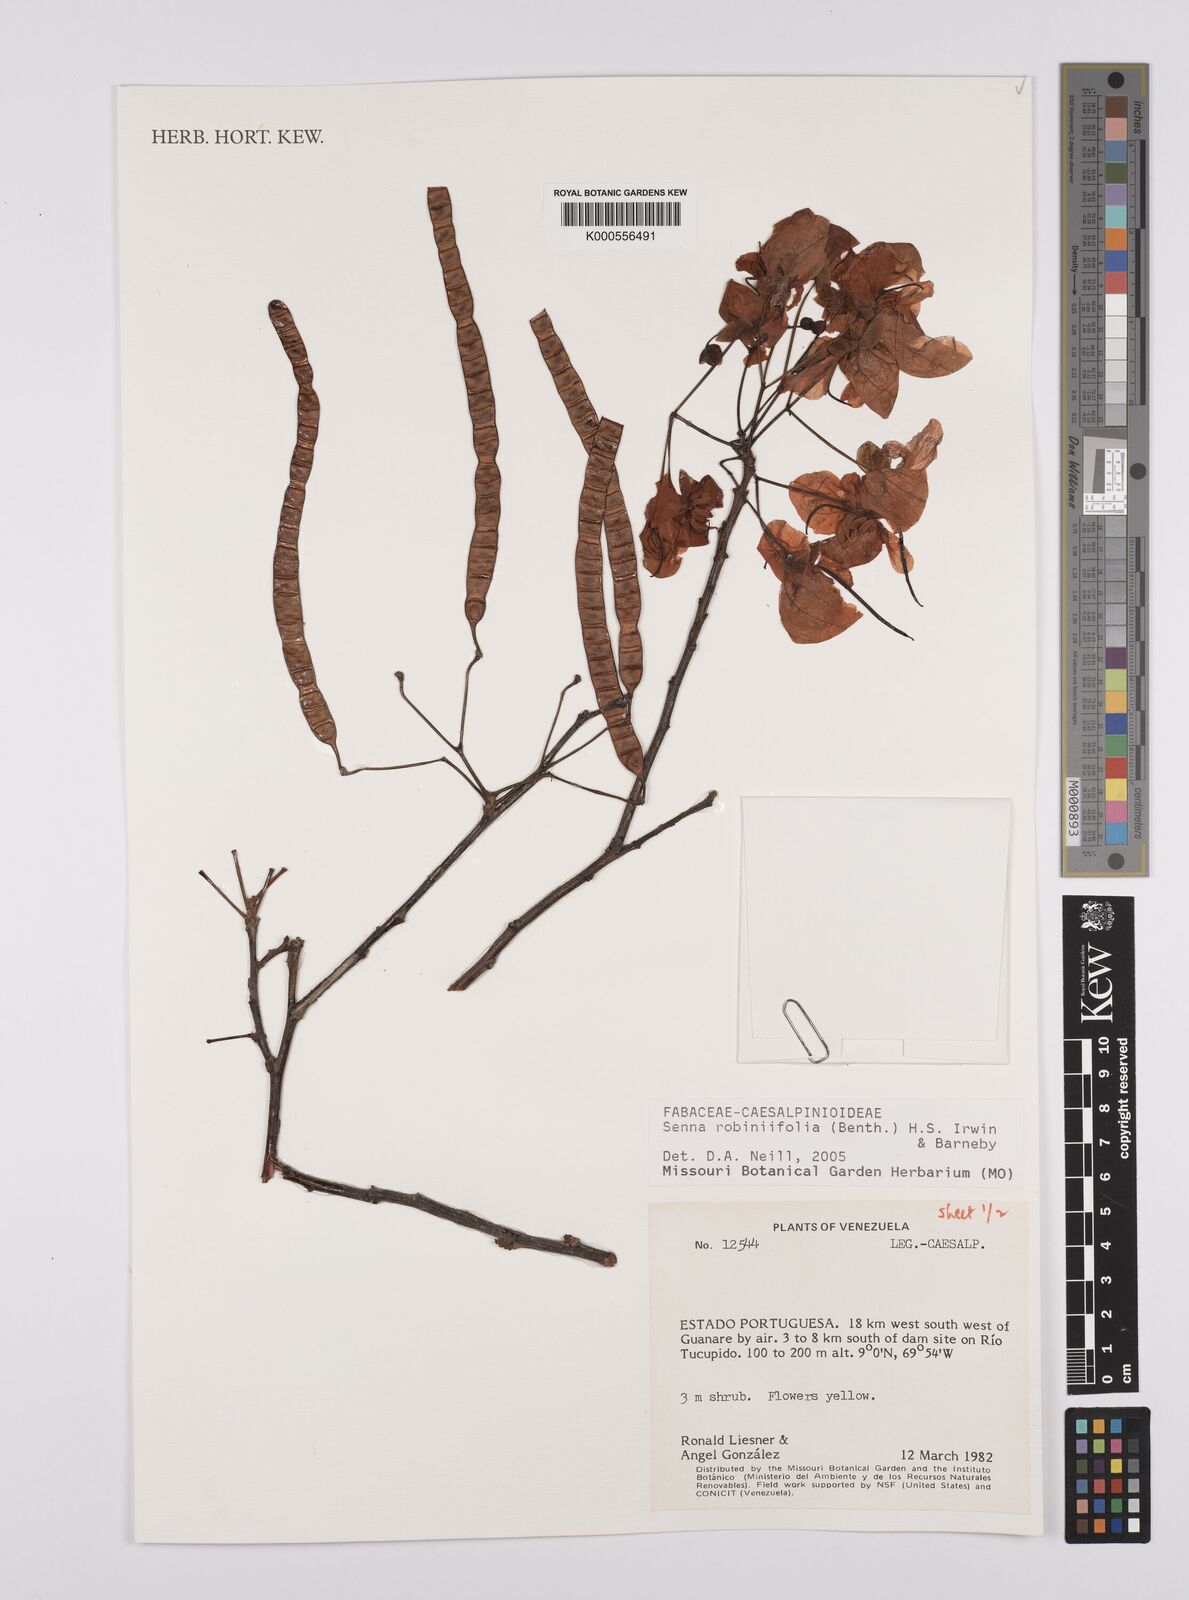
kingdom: Plantae
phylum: Tracheophyta
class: Magnoliopsida
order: Fabales
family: Fabaceae
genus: Senna
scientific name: Senna robiniifolia
